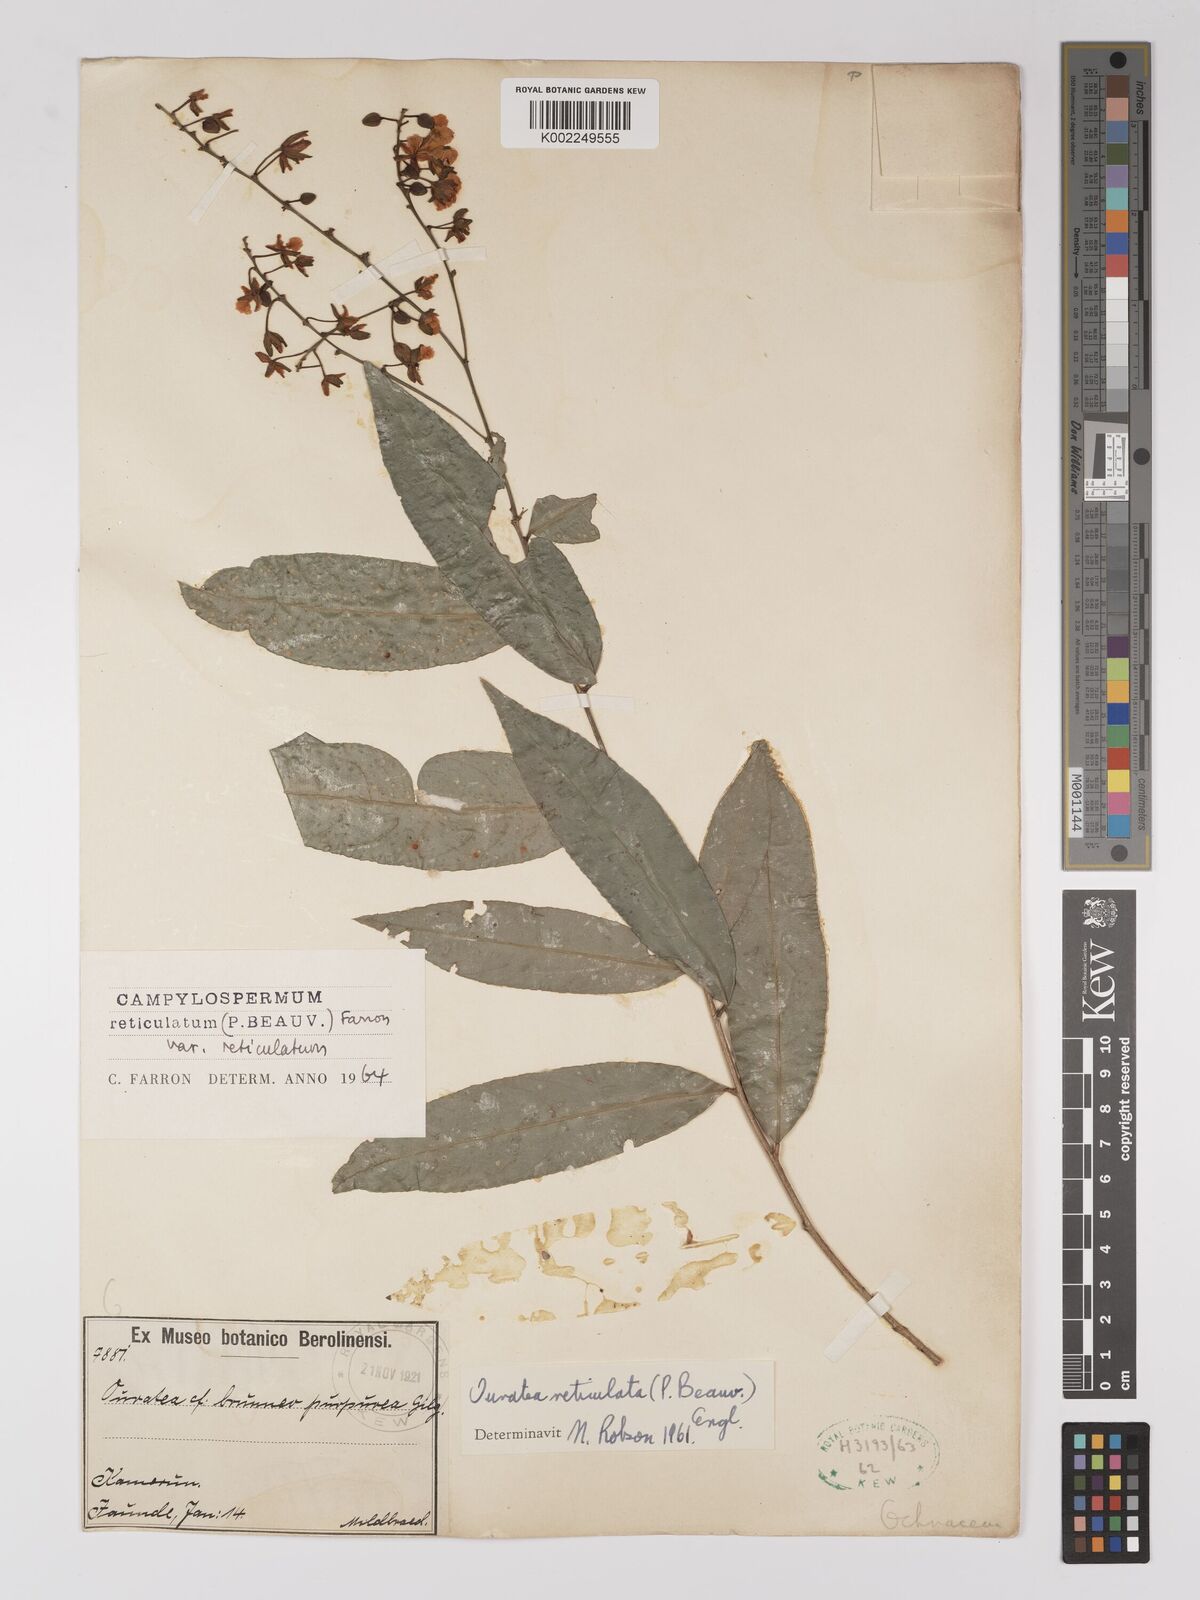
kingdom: Plantae
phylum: Tracheophyta
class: Magnoliopsida
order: Malpighiales
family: Ochnaceae
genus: Campylospermum
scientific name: Campylospermum reticulatum
